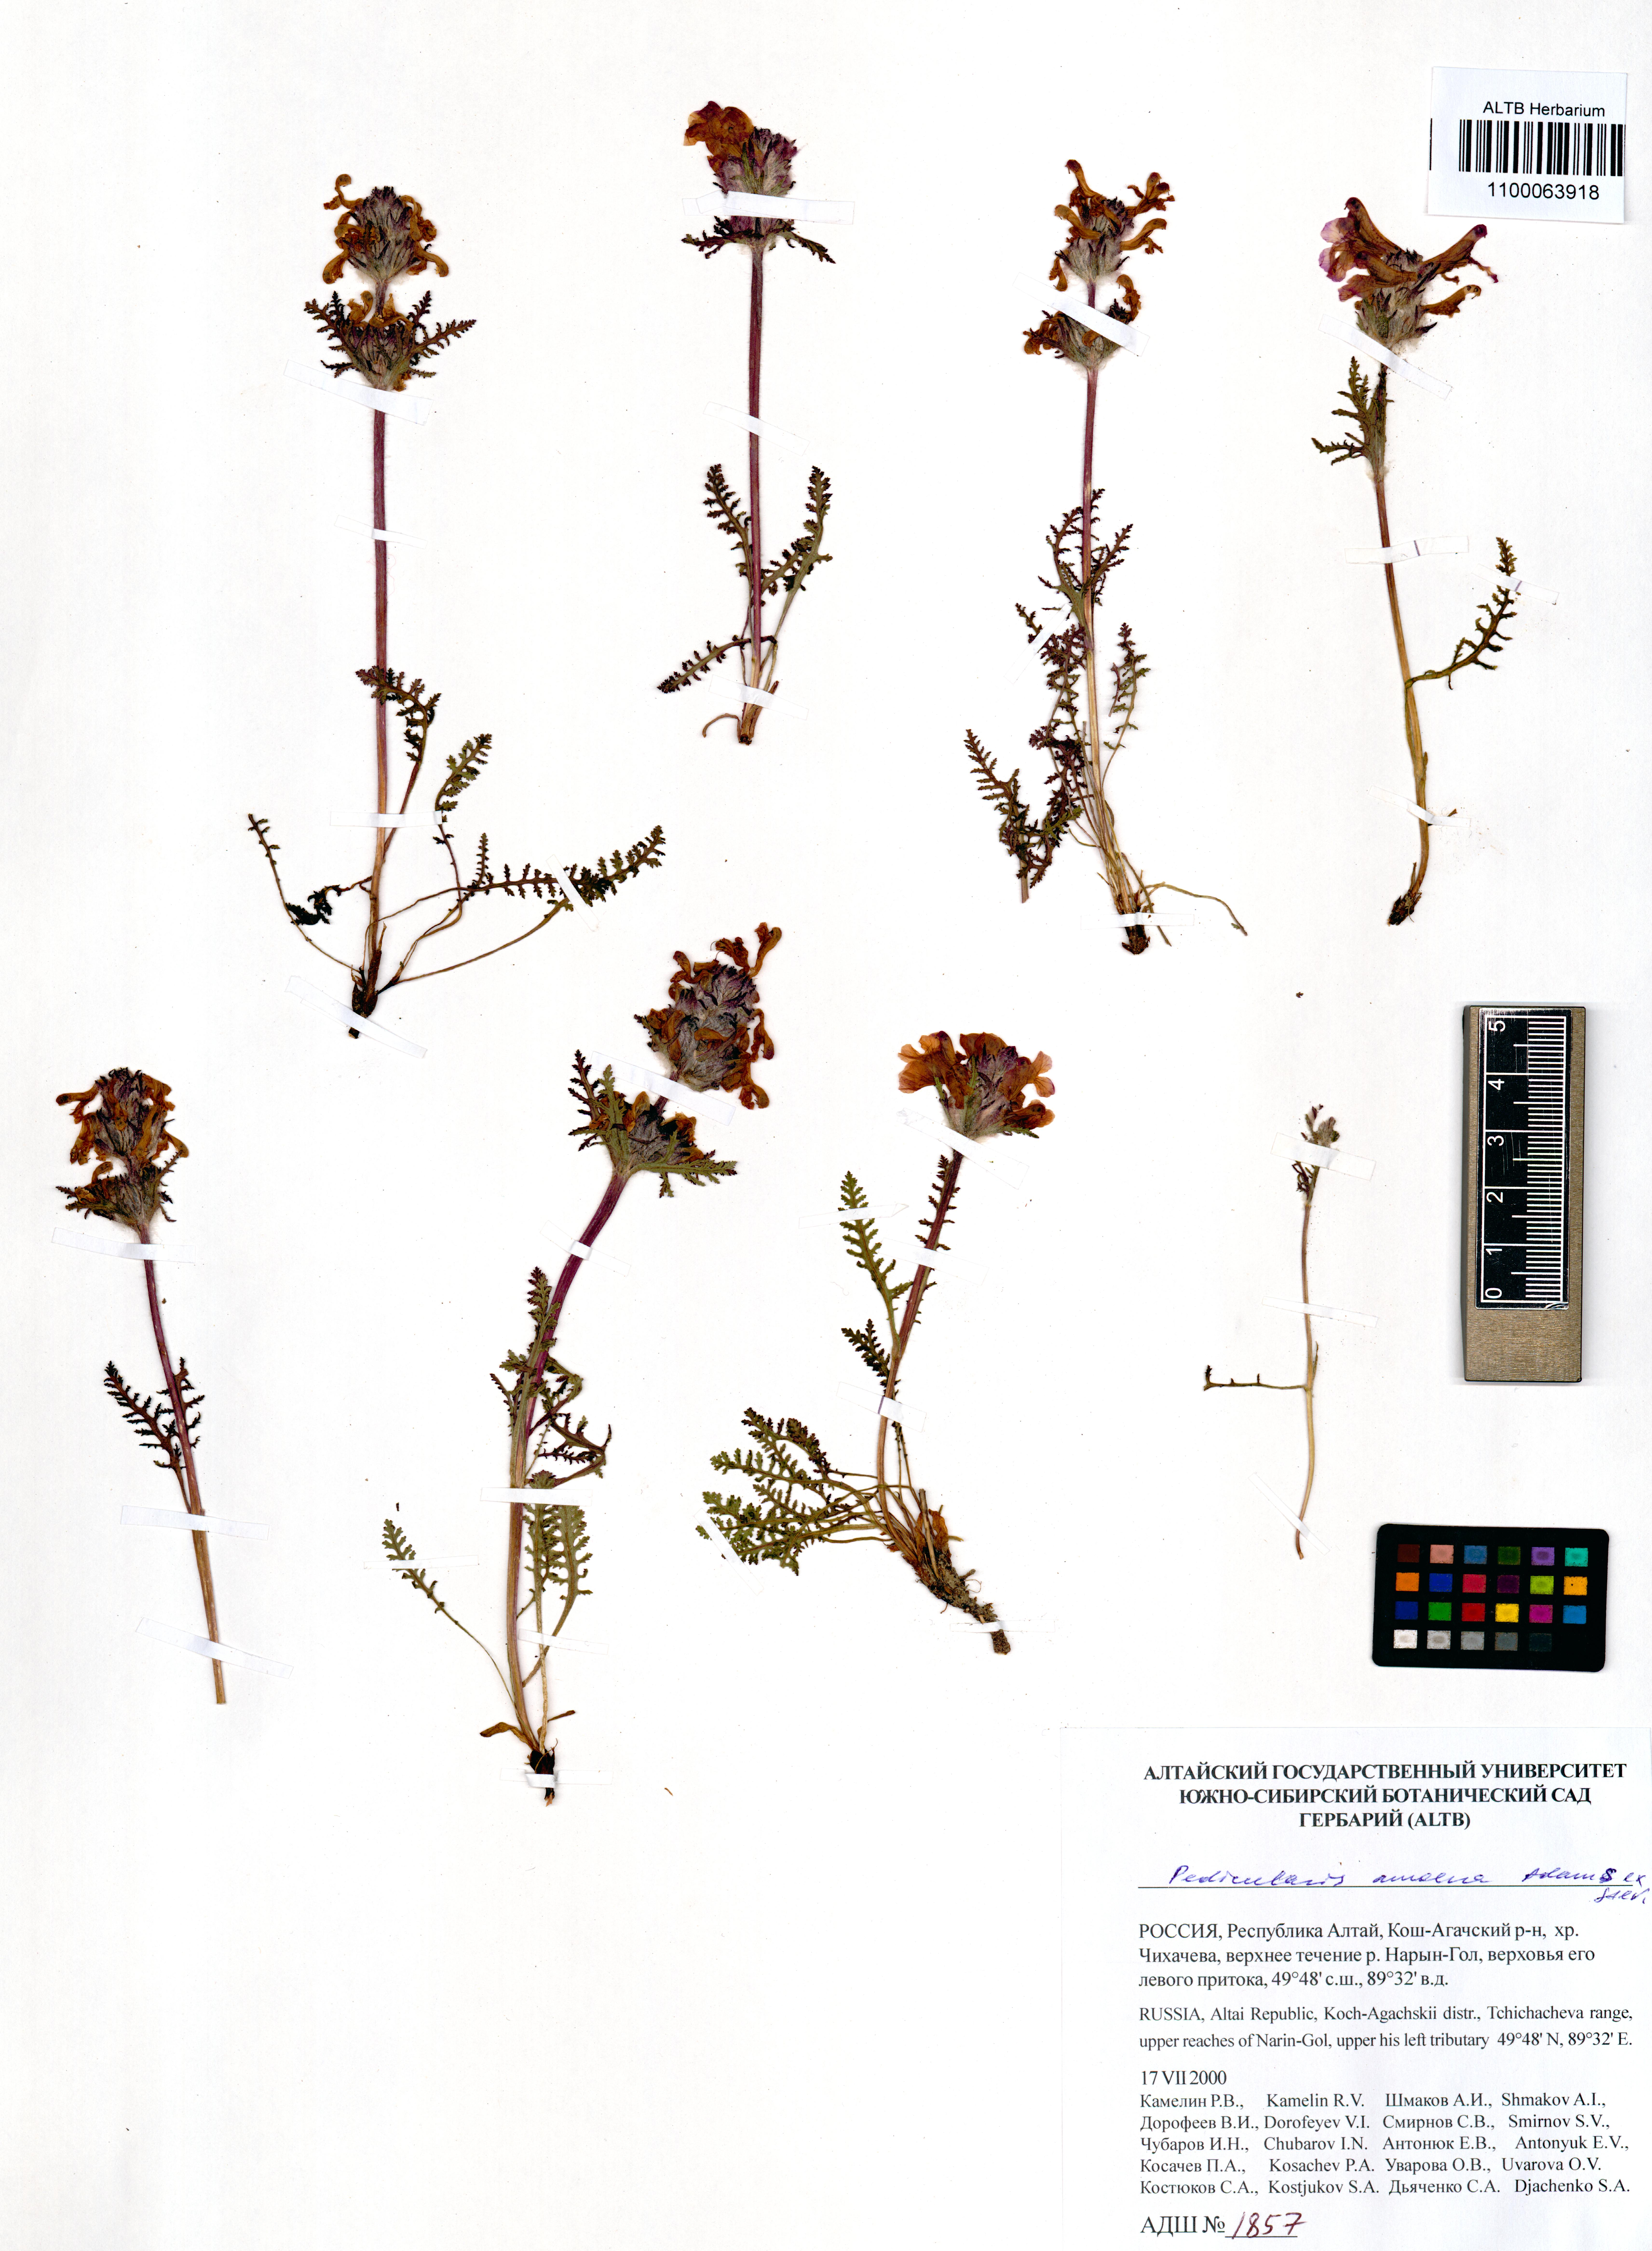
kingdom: Plantae
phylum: Tracheophyta
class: Magnoliopsida
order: Lamiales
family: Orobanchaceae
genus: Pedicularis
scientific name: Pedicularis amoena
